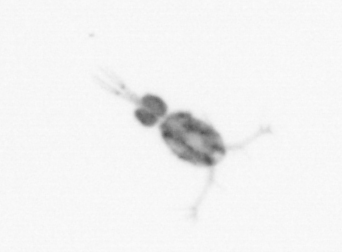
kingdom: Animalia
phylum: Arthropoda
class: Copepoda
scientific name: Copepoda
